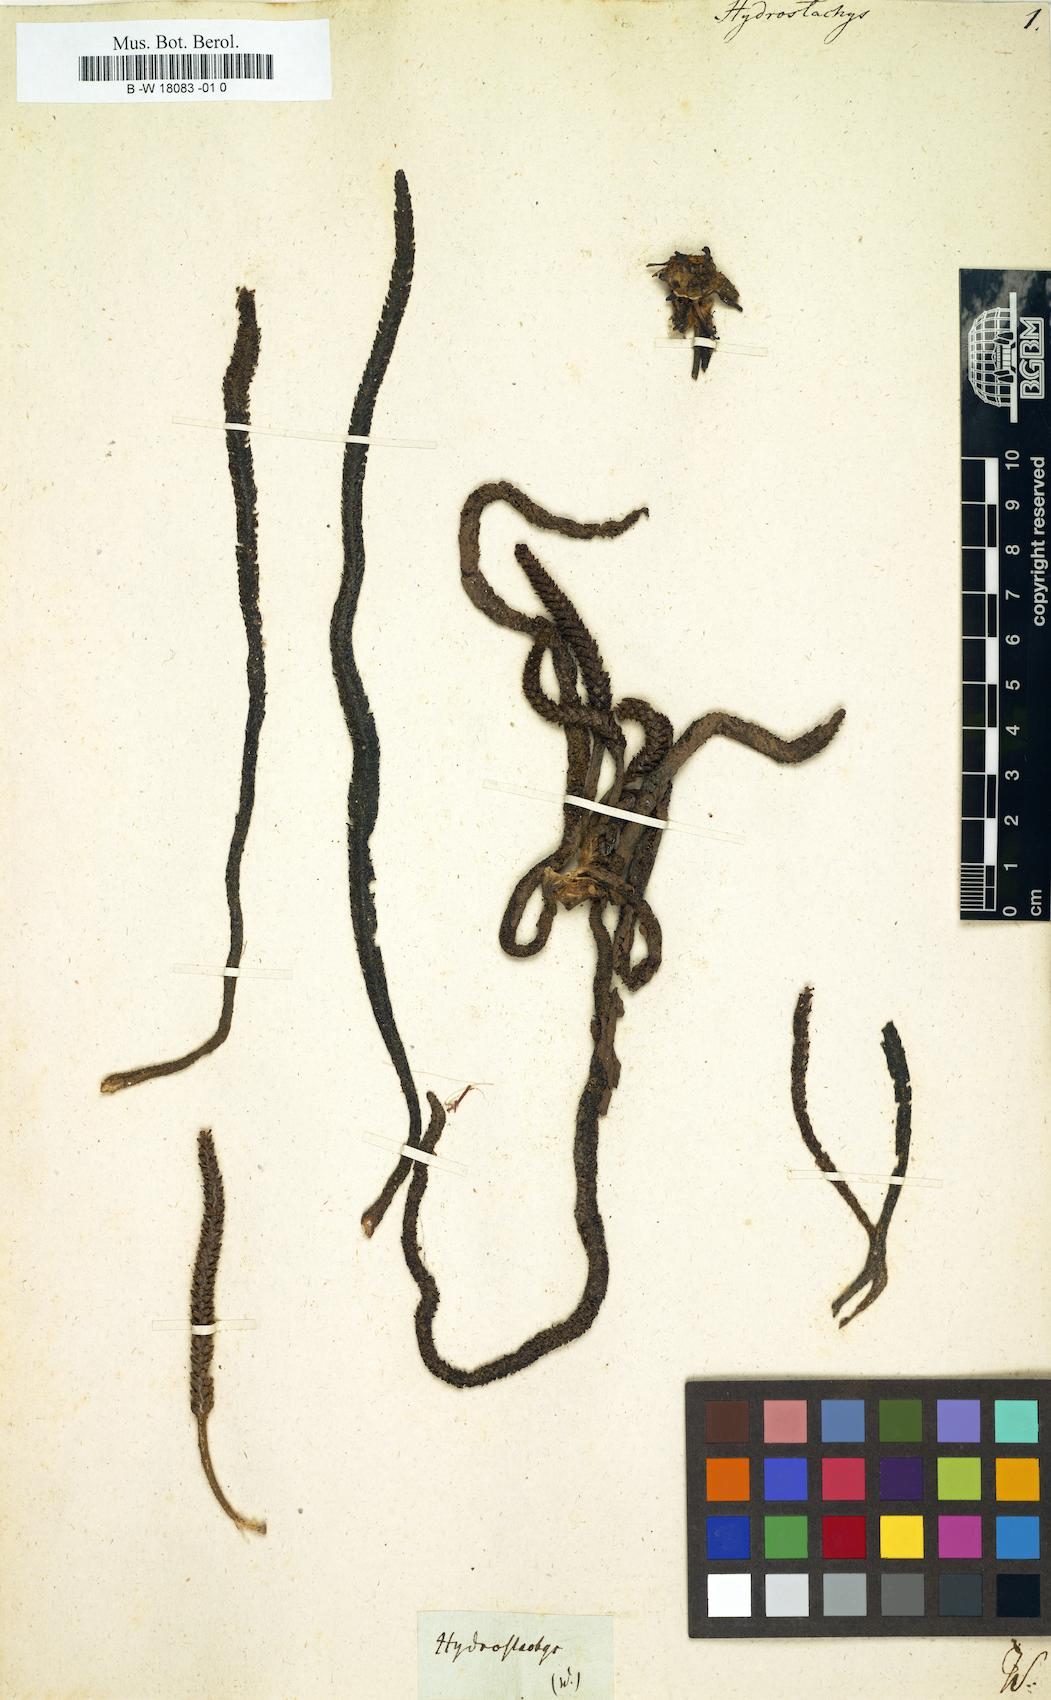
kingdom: Plantae
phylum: Tracheophyta
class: Magnoliopsida
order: Cornales
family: Hydrostachyaceae
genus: Hydrostachys
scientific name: Hydrostachys
